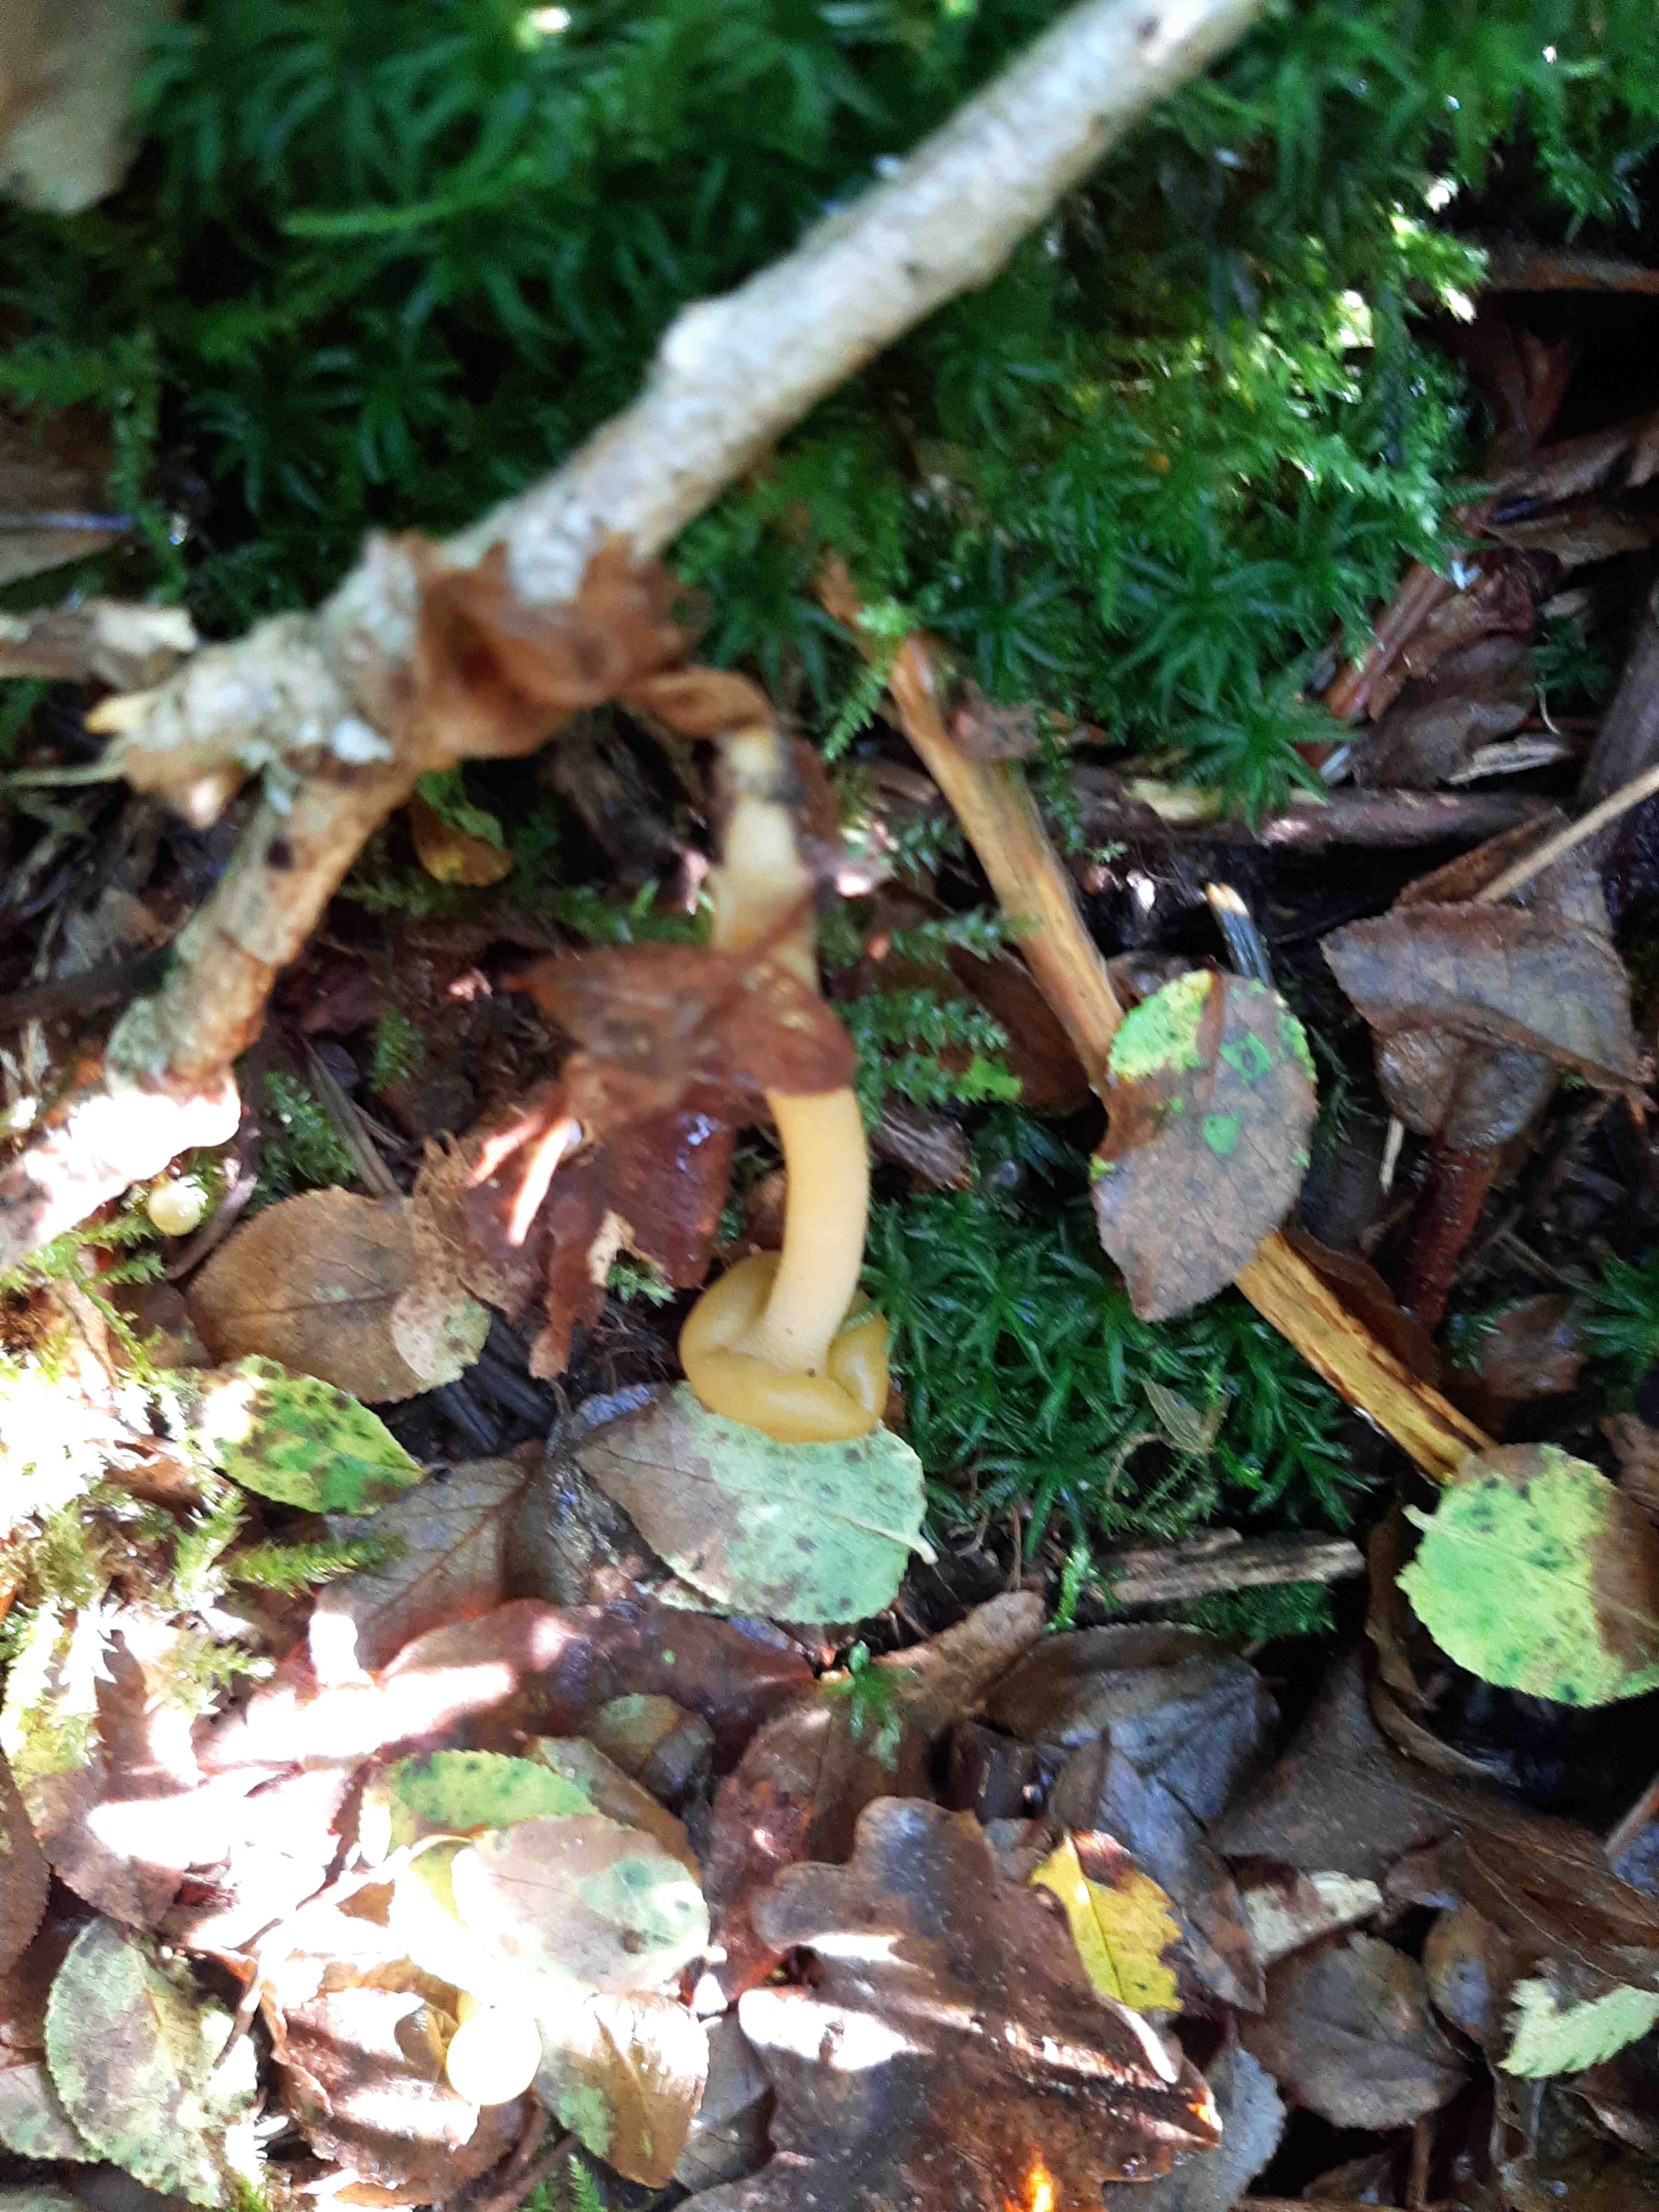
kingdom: Fungi
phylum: Ascomycota
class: Leotiomycetes
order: Leotiales
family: Leotiaceae
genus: Leotia
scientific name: Leotia lubrica
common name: ravsvamp
